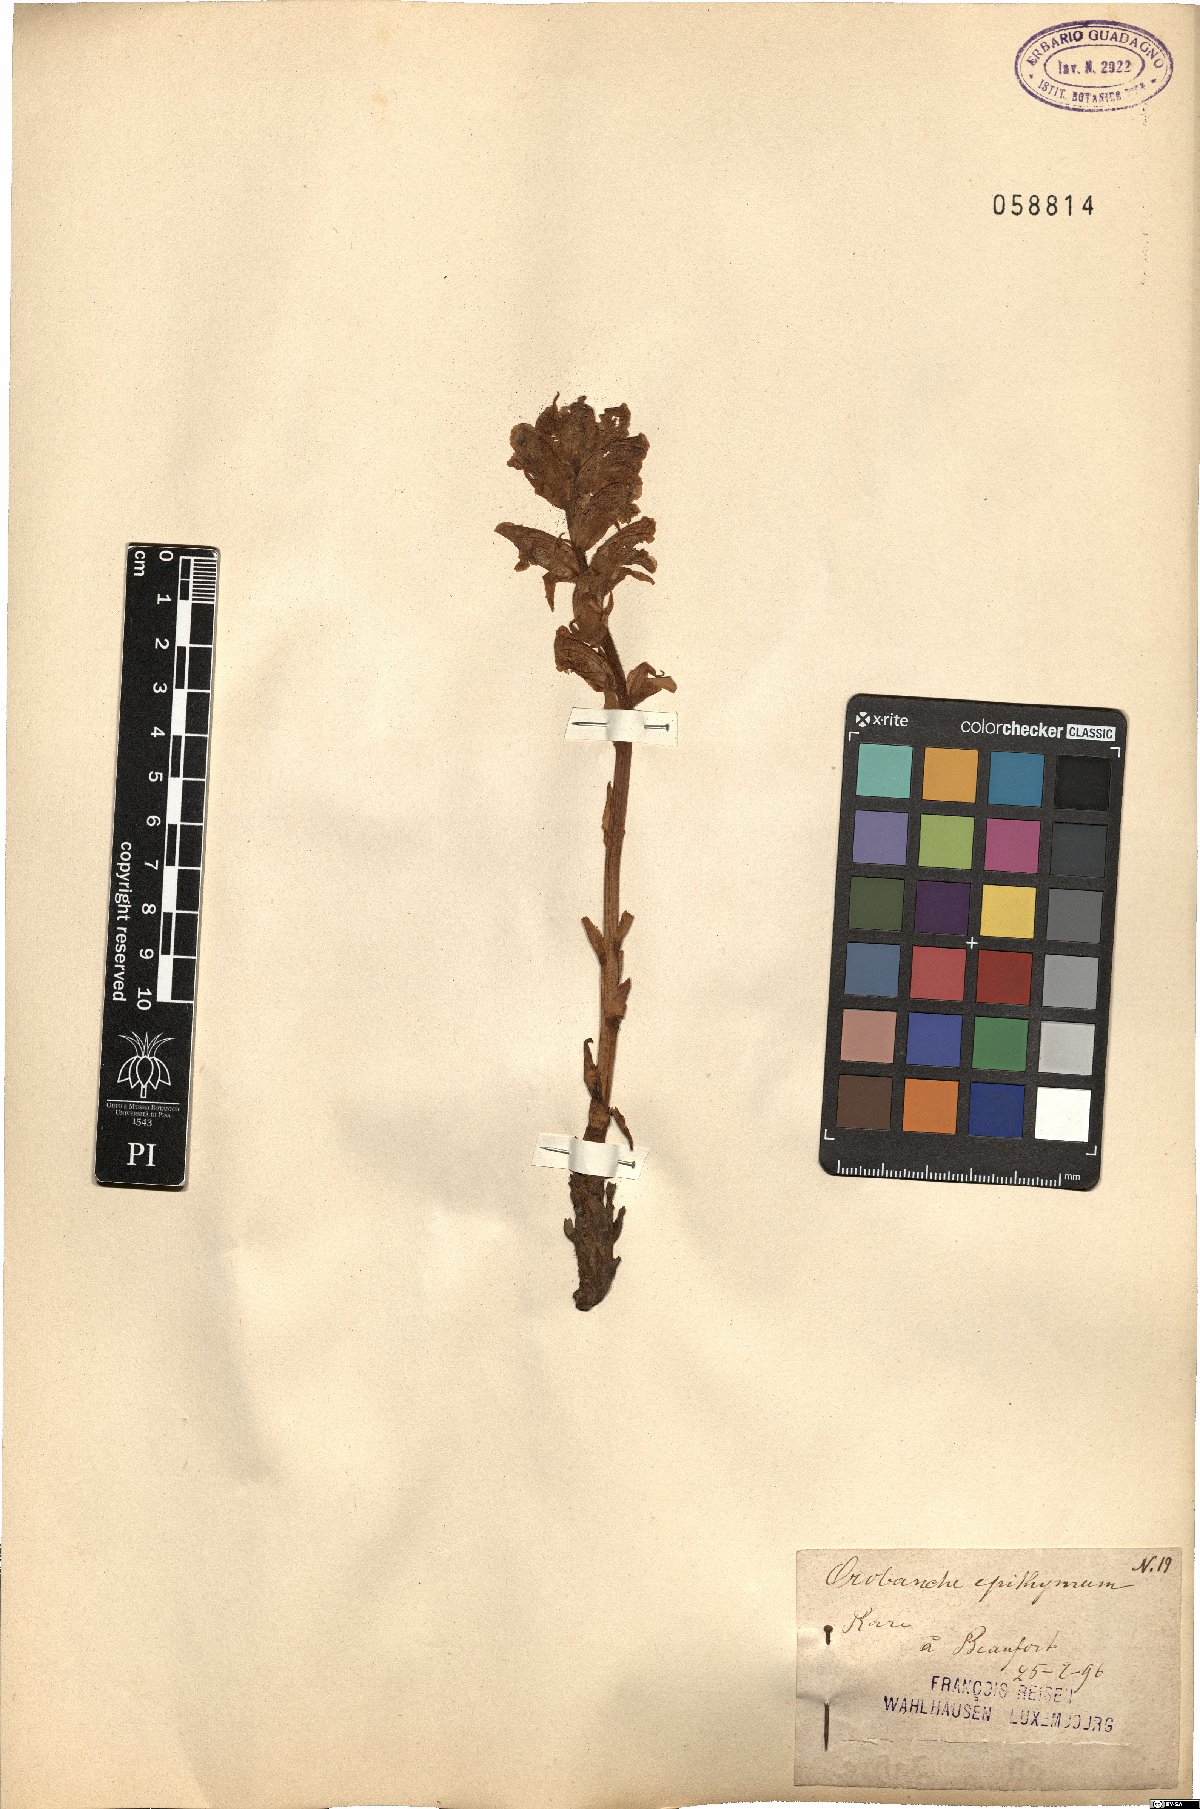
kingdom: Plantae
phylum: Tracheophyta
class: Magnoliopsida
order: Lamiales
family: Orobanchaceae
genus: Orobanche
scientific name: Orobanche alba
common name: Thyme broomrape
